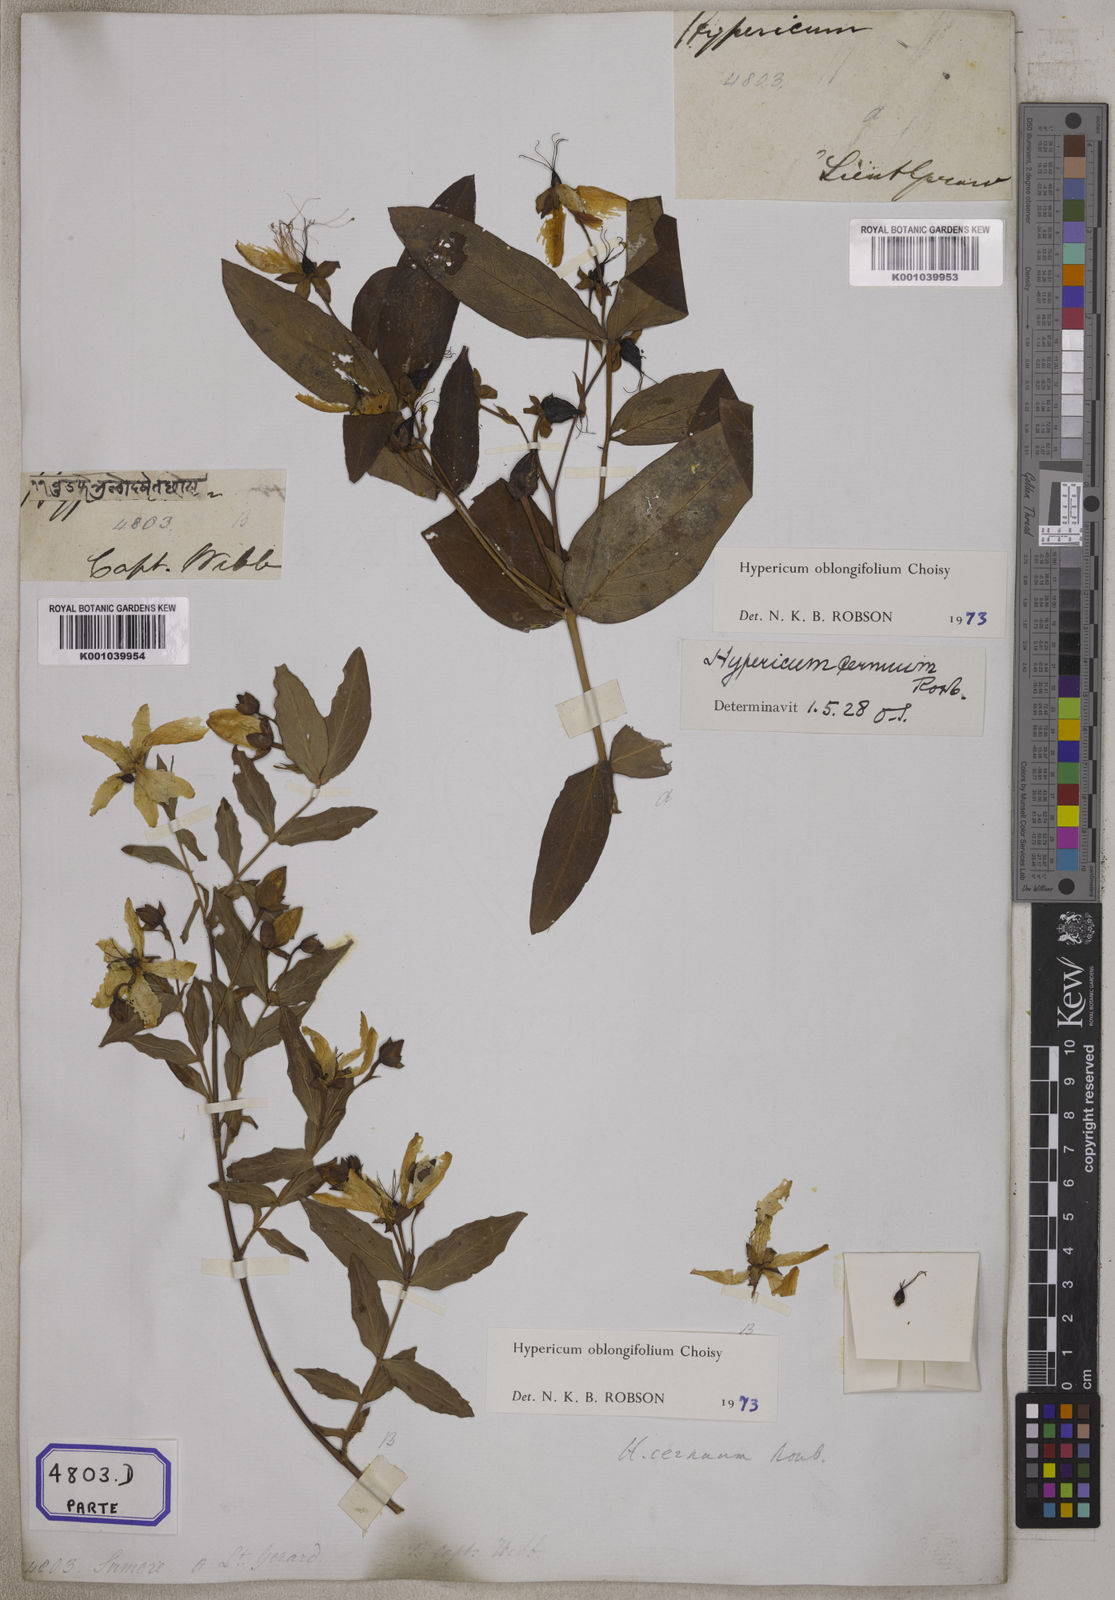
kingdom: Plantae
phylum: Tracheophyta
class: Magnoliopsida
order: Malpighiales
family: Hypericaceae
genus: Hypericum
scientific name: Hypericum oblongifolium
